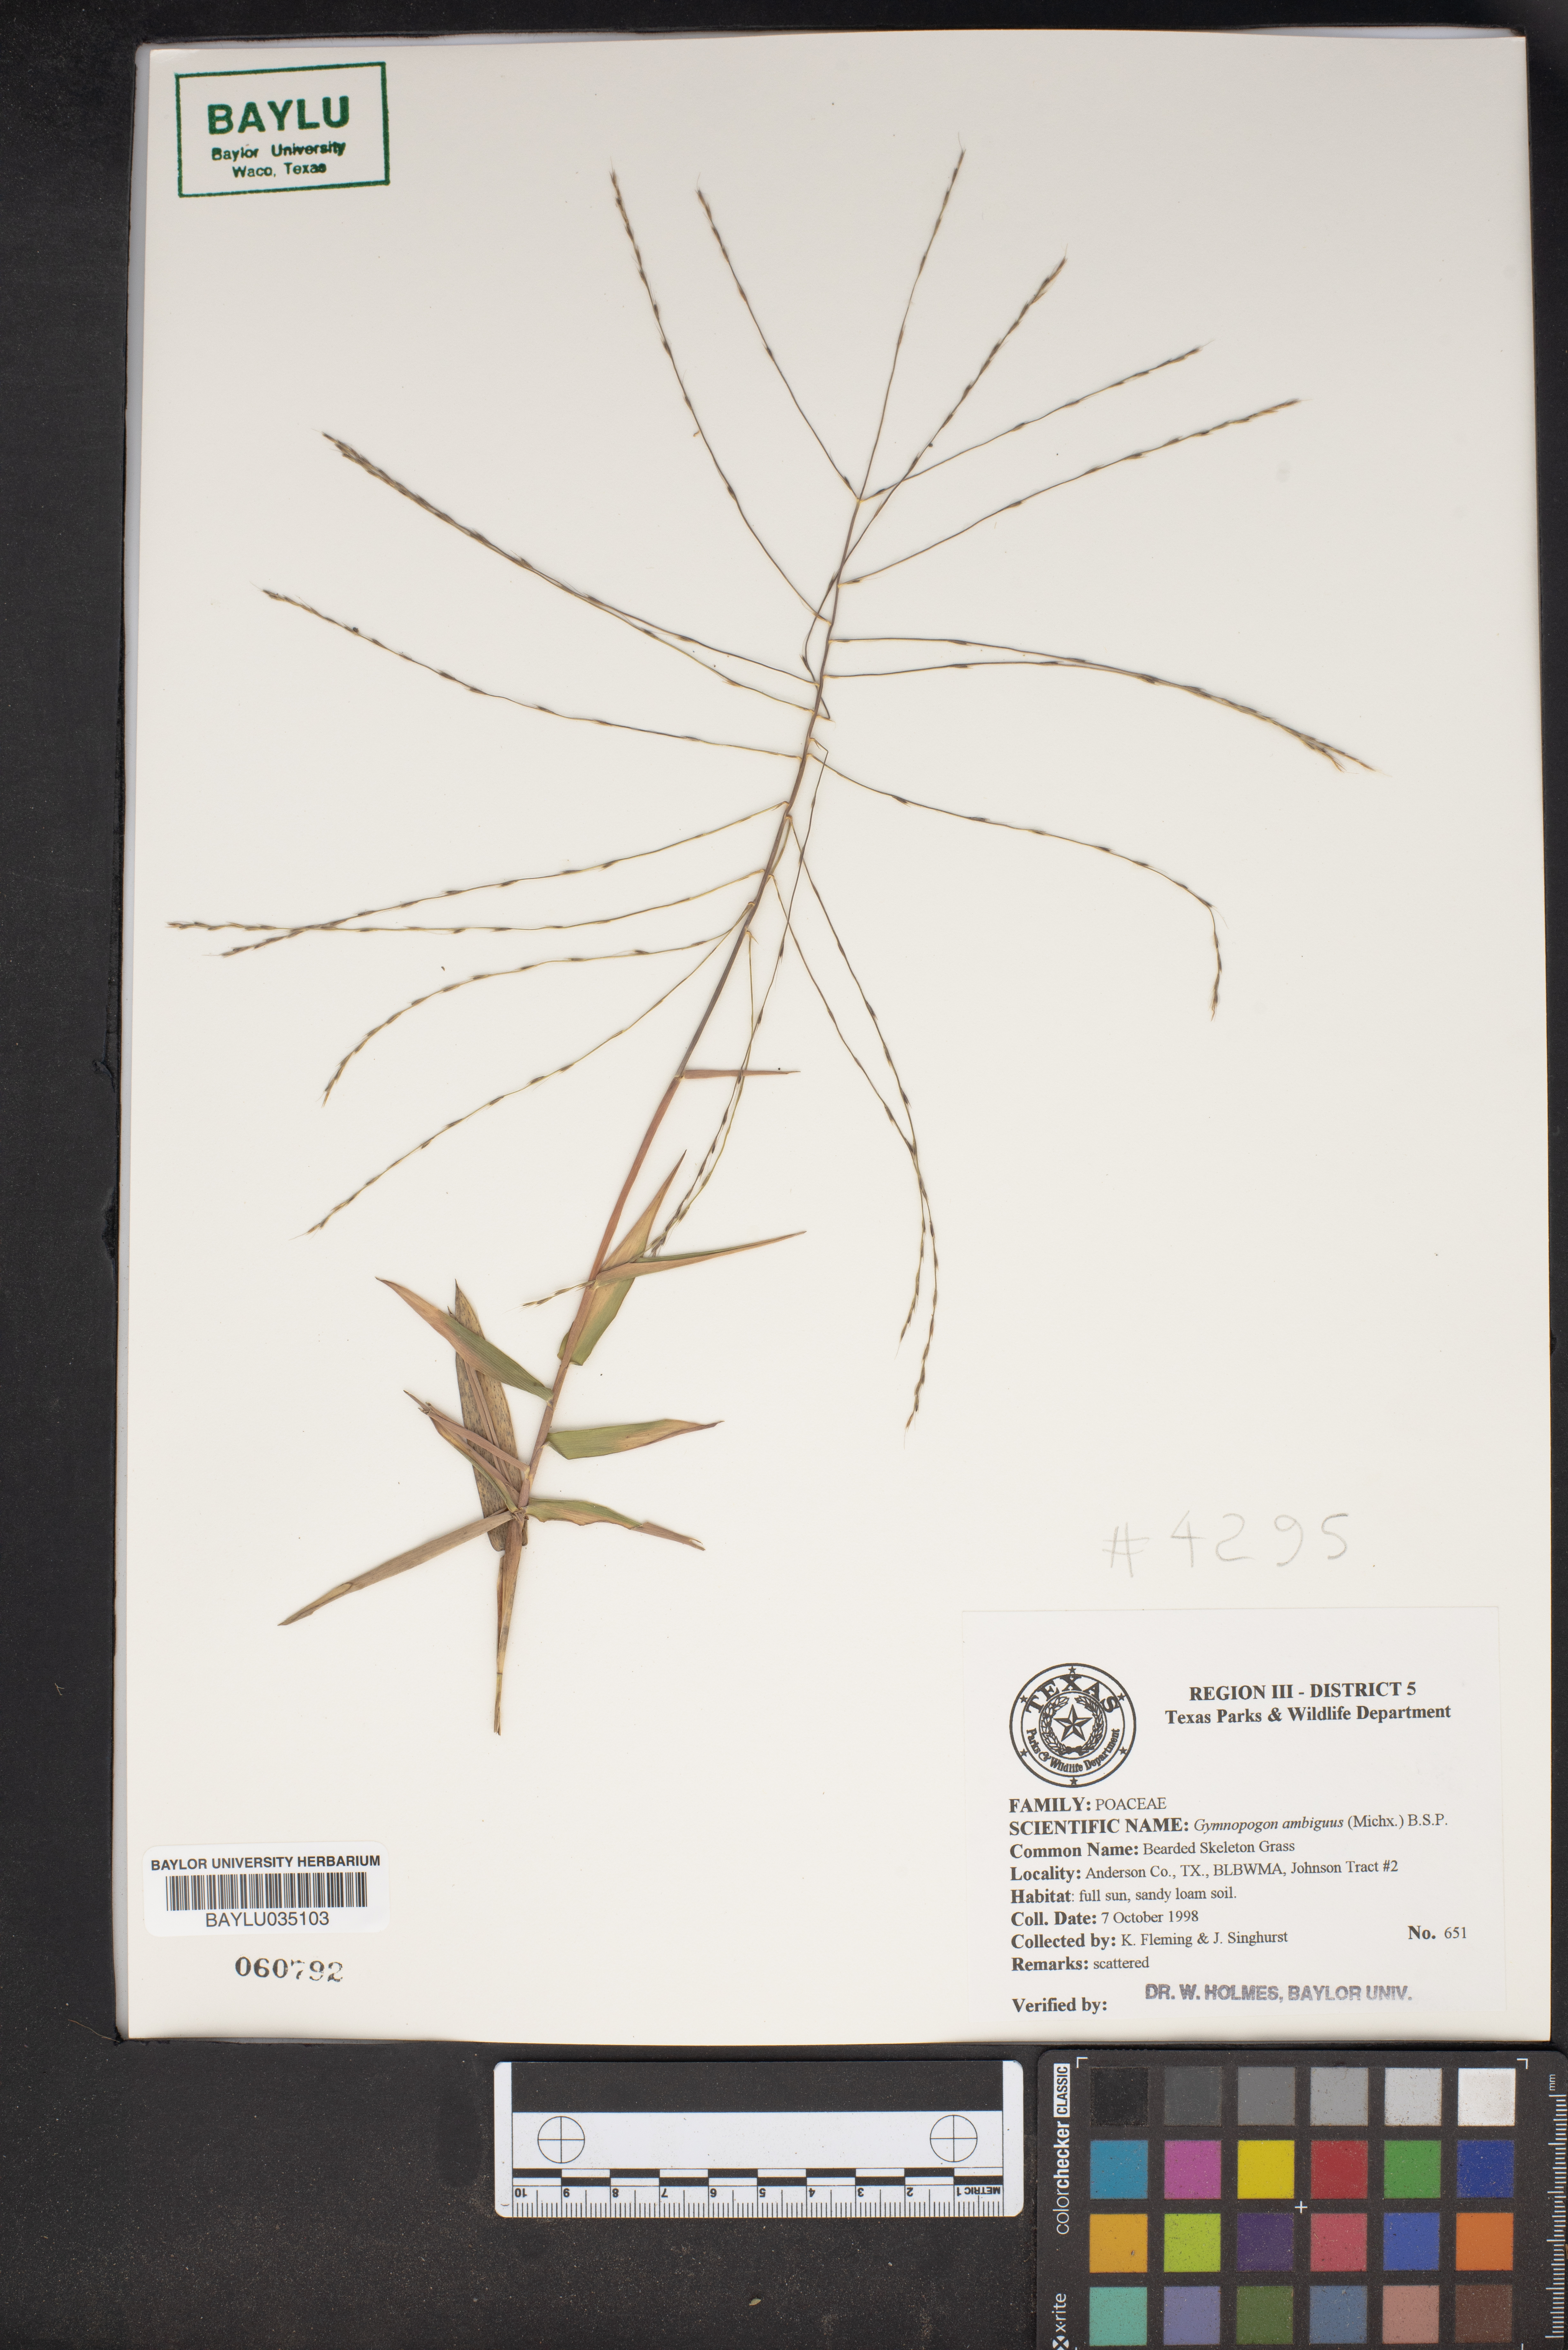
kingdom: Plantae
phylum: Tracheophyta
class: Liliopsida
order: Poales
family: Poaceae
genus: Gymnopogon
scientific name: Gymnopogon ambiguus
